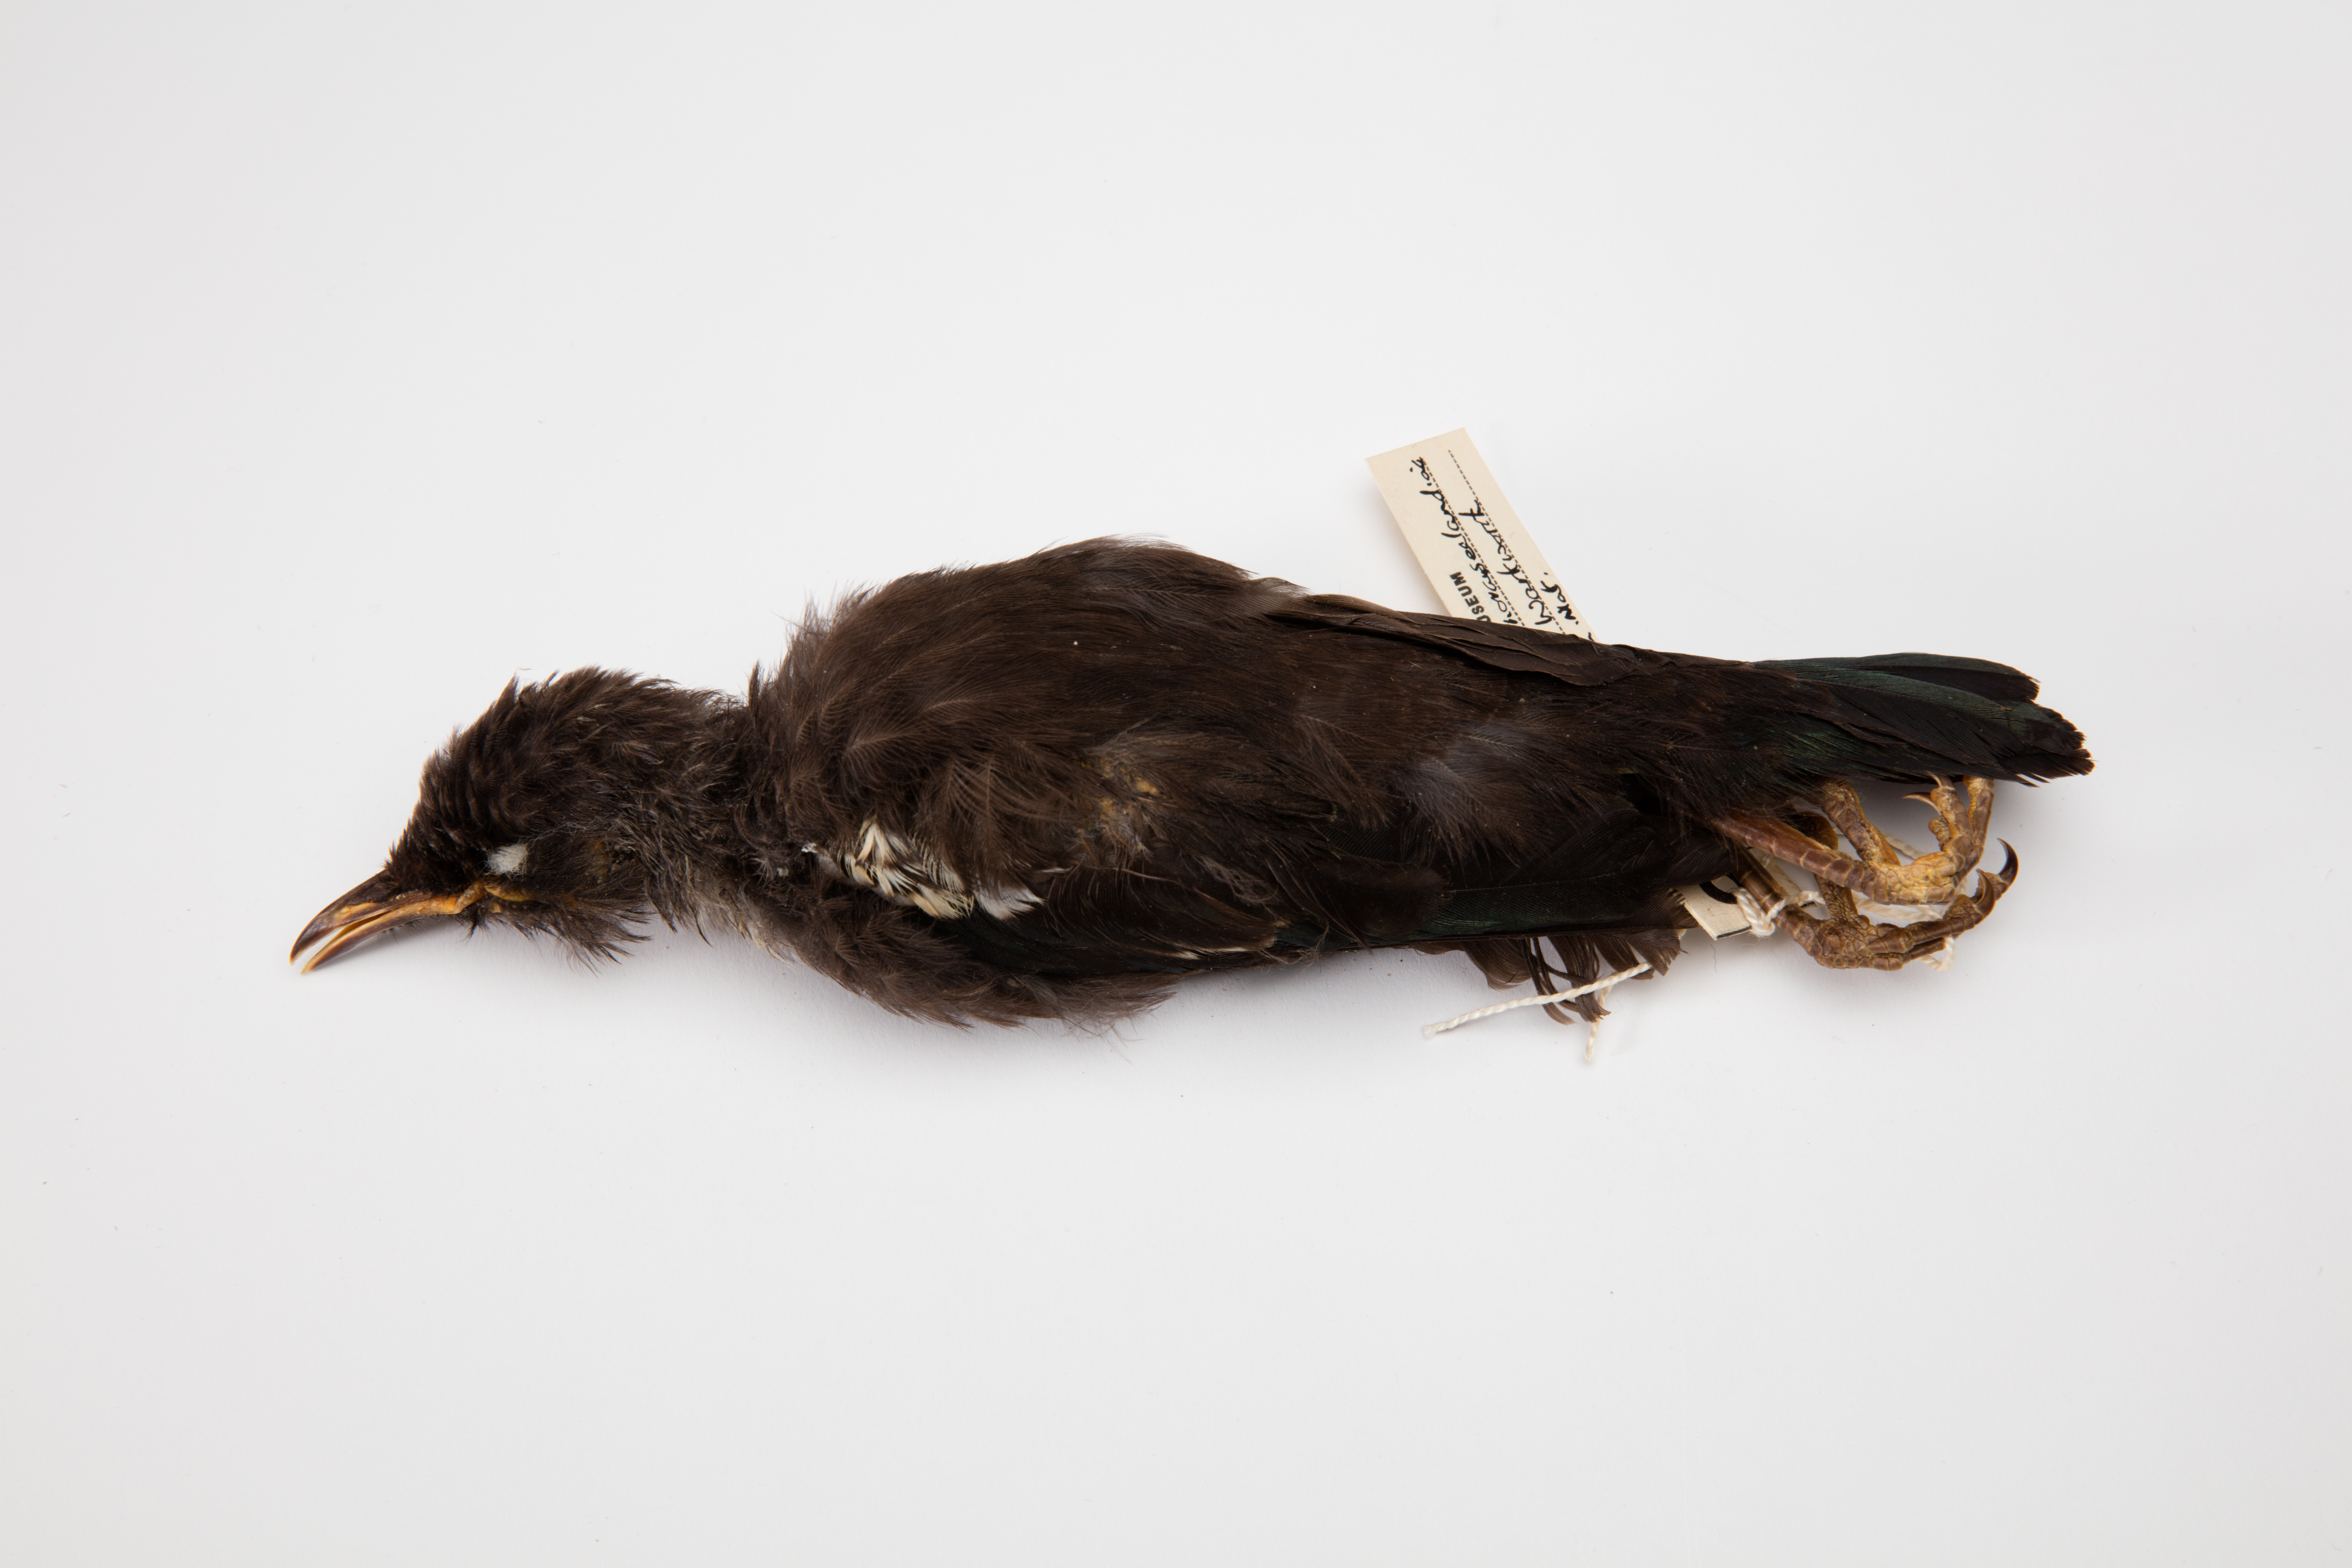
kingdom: Animalia
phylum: Chordata
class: Aves
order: Passeriformes
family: Meliphagidae
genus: Prosthemadera
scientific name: Prosthemadera novaeseelandiae
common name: Tui
